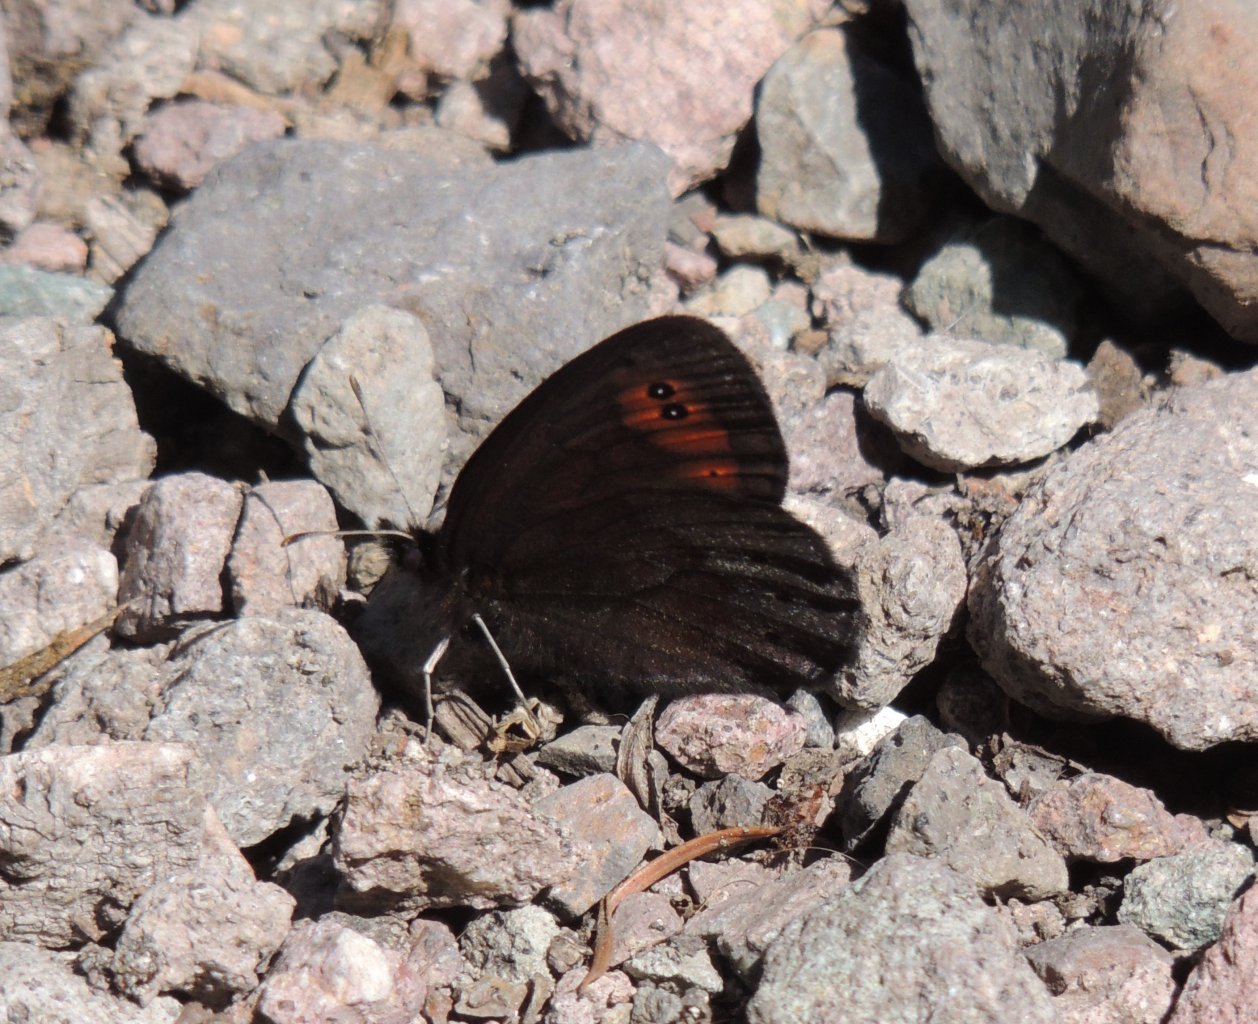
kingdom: Animalia
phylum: Arthropoda
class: Insecta
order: Lepidoptera
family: Nymphalidae
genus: Erebia
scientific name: Erebia epipsodea
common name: Common Alpine
